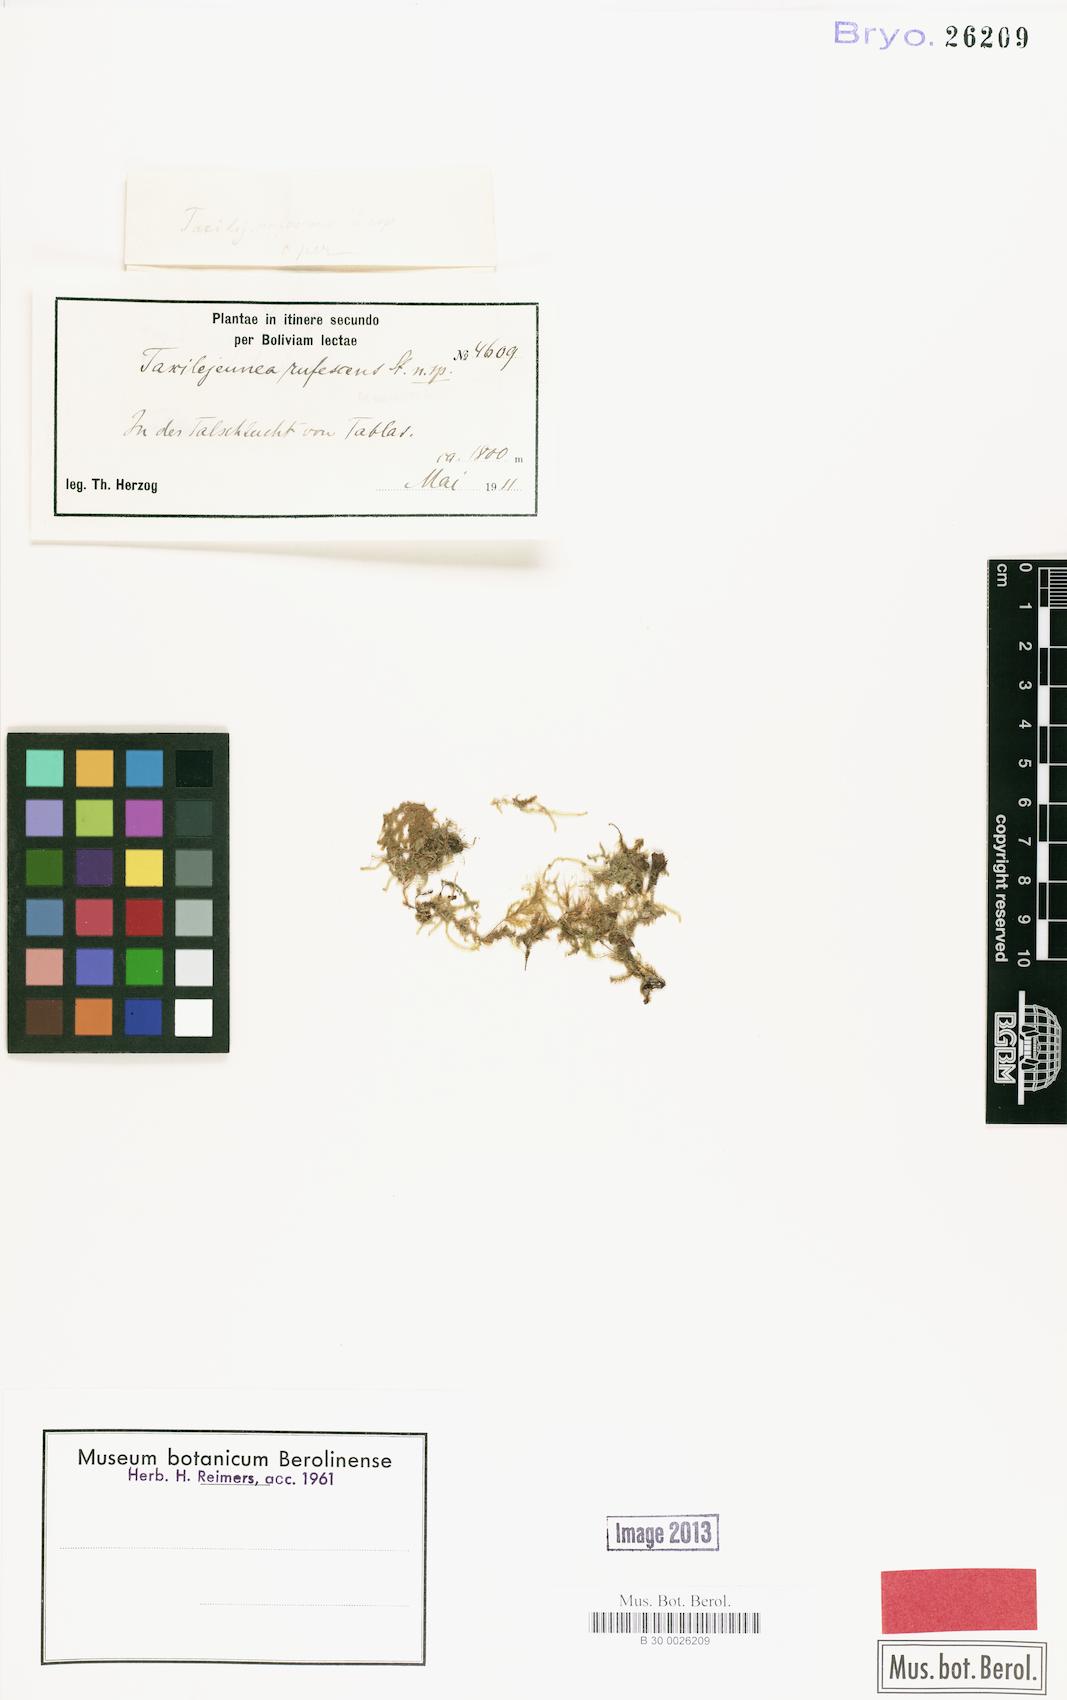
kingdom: Plantae
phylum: Marchantiophyta
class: Jungermanniopsida
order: Porellales
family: Lejeuneaceae
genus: Taxilejeunea
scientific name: Taxilejeunea rufescens
